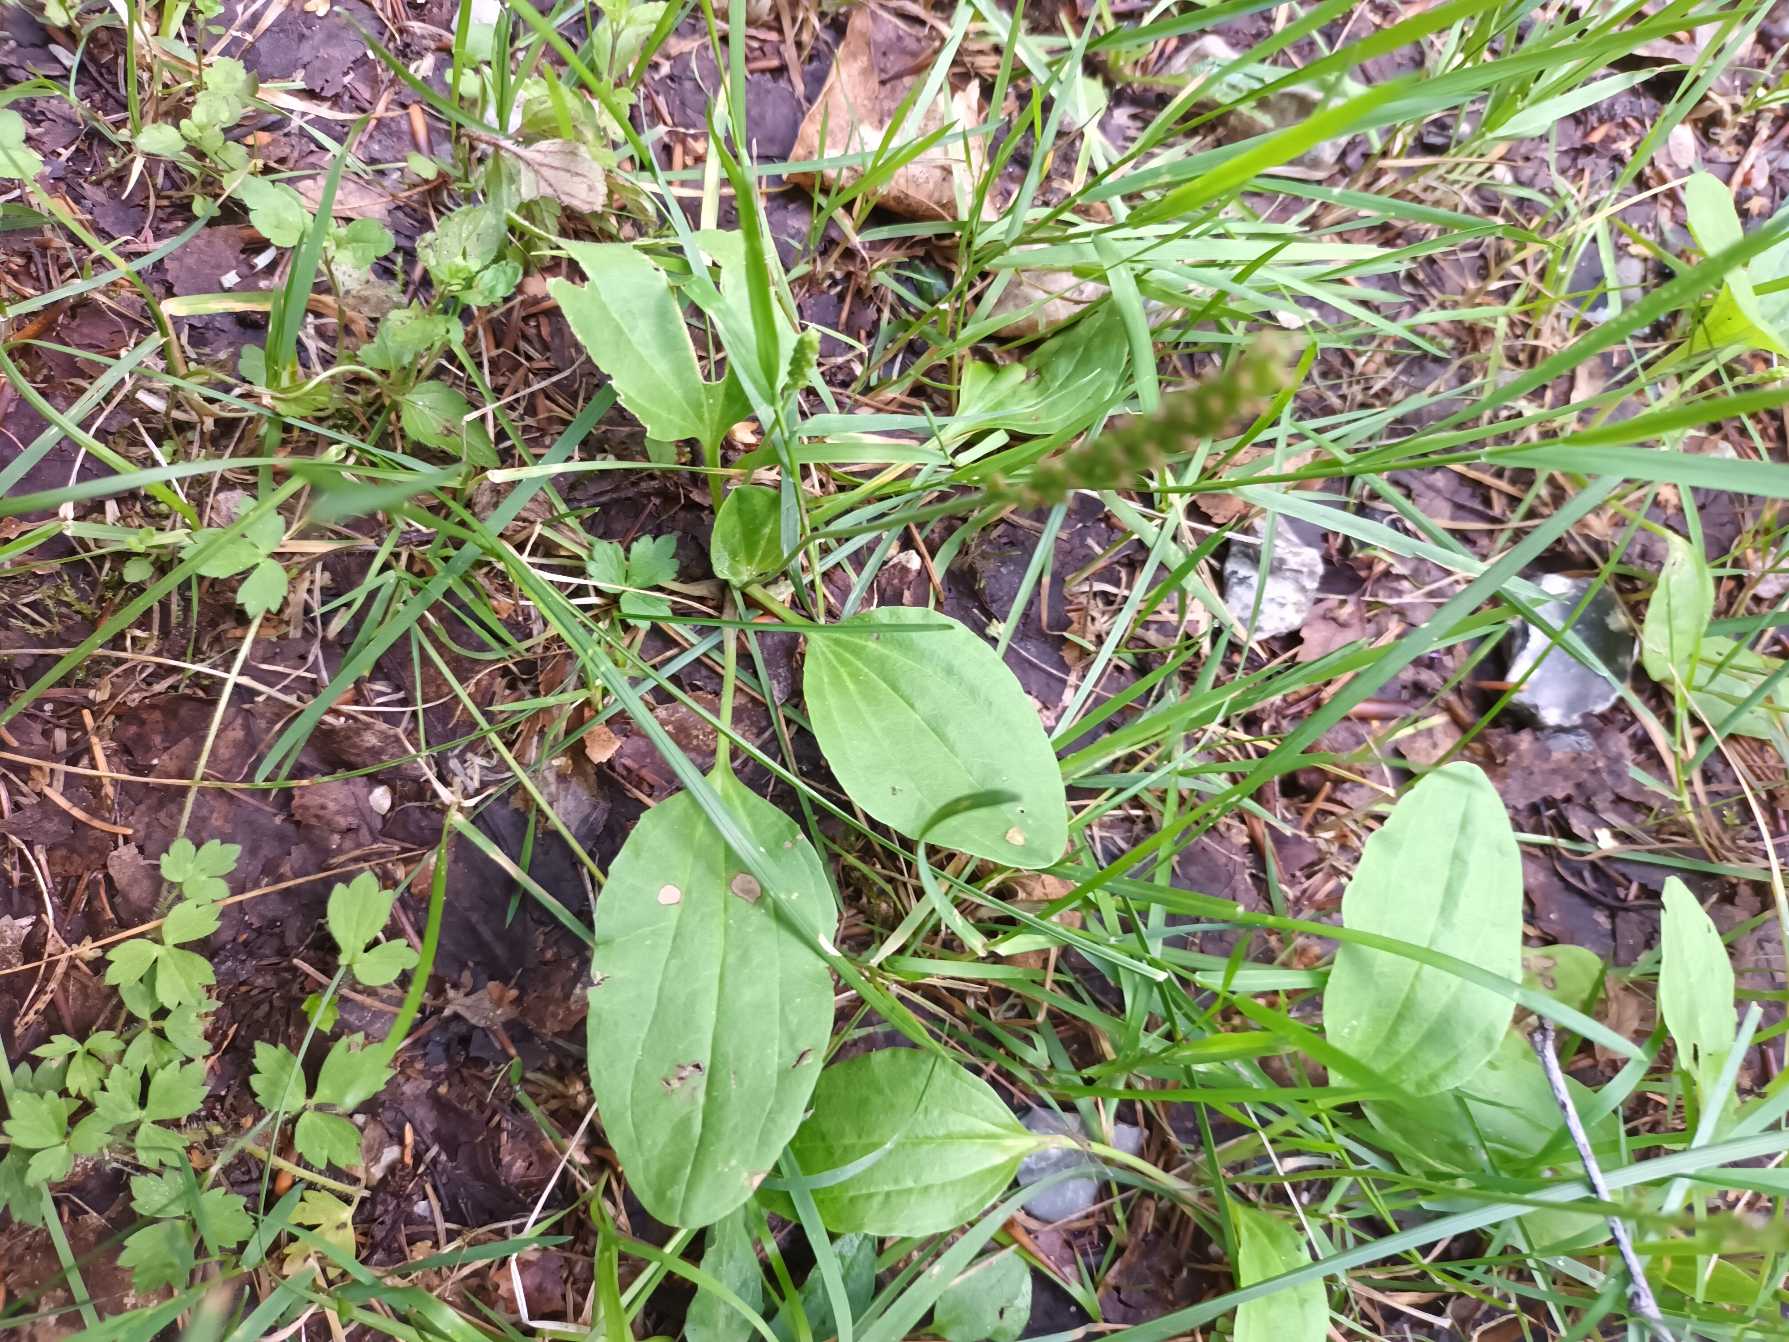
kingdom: Plantae
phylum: Tracheophyta
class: Magnoliopsida
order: Lamiales
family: Plantaginaceae
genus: Plantago
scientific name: Plantago major
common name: Glat vejbred
